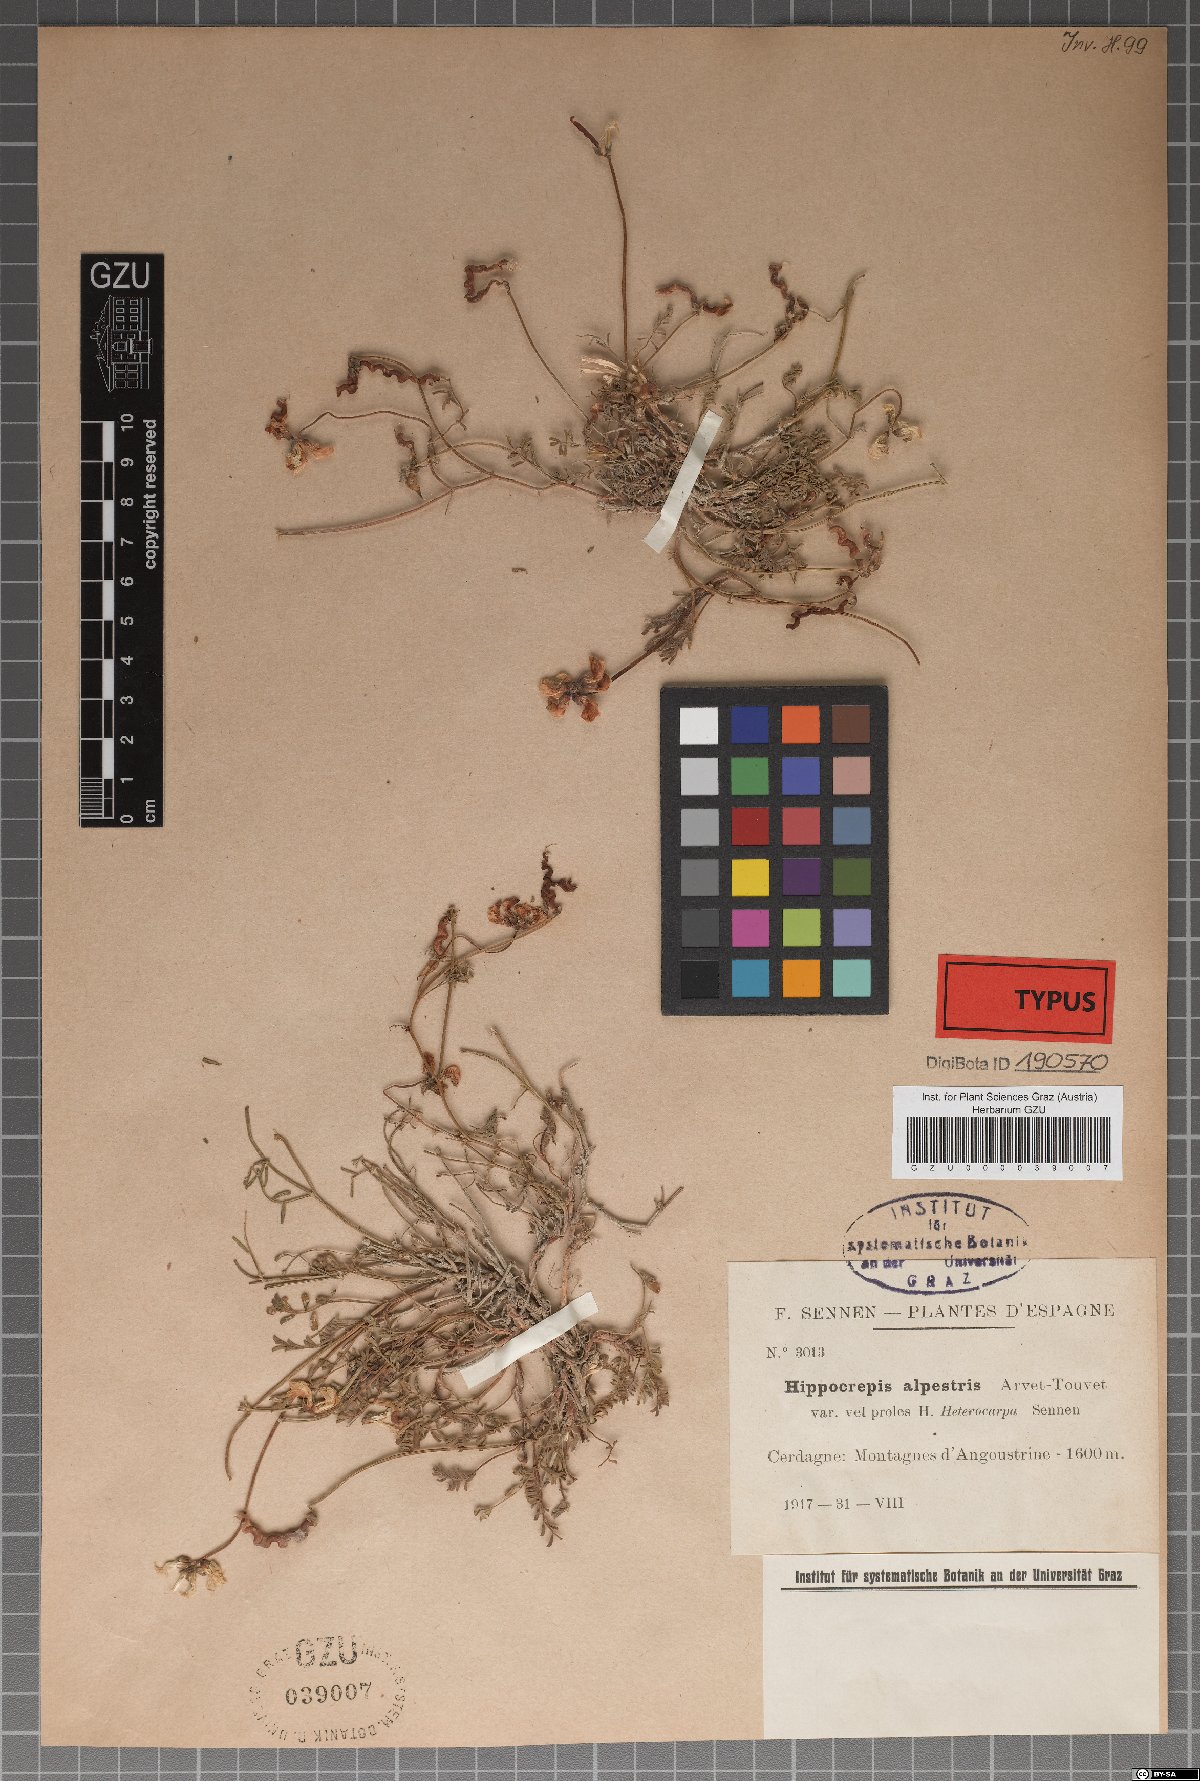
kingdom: Plantae
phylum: Tracheophyta
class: Magnoliopsida
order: Fabales
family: Fabaceae
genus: Hippocrepis
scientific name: Hippocrepis comosa
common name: Horseshoe vetch
